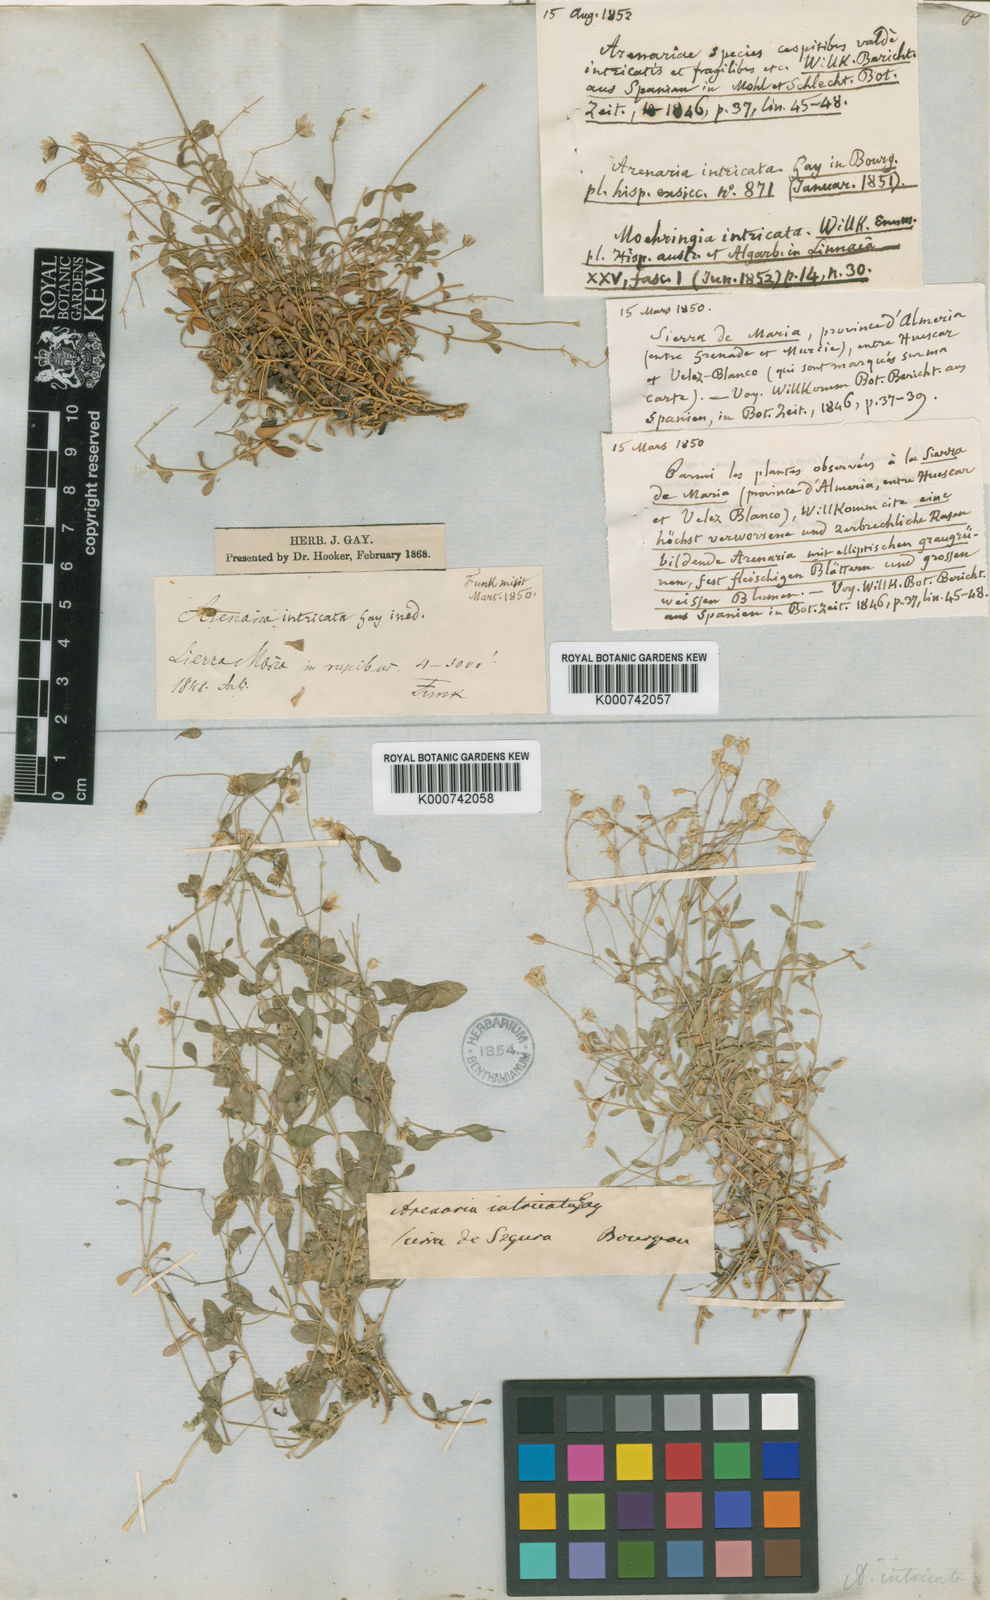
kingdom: Plantae
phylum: Tracheophyta
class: Magnoliopsida
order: Caryophyllales
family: Caryophyllaceae
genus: Arenaria
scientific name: Arenaria suffruticosa
